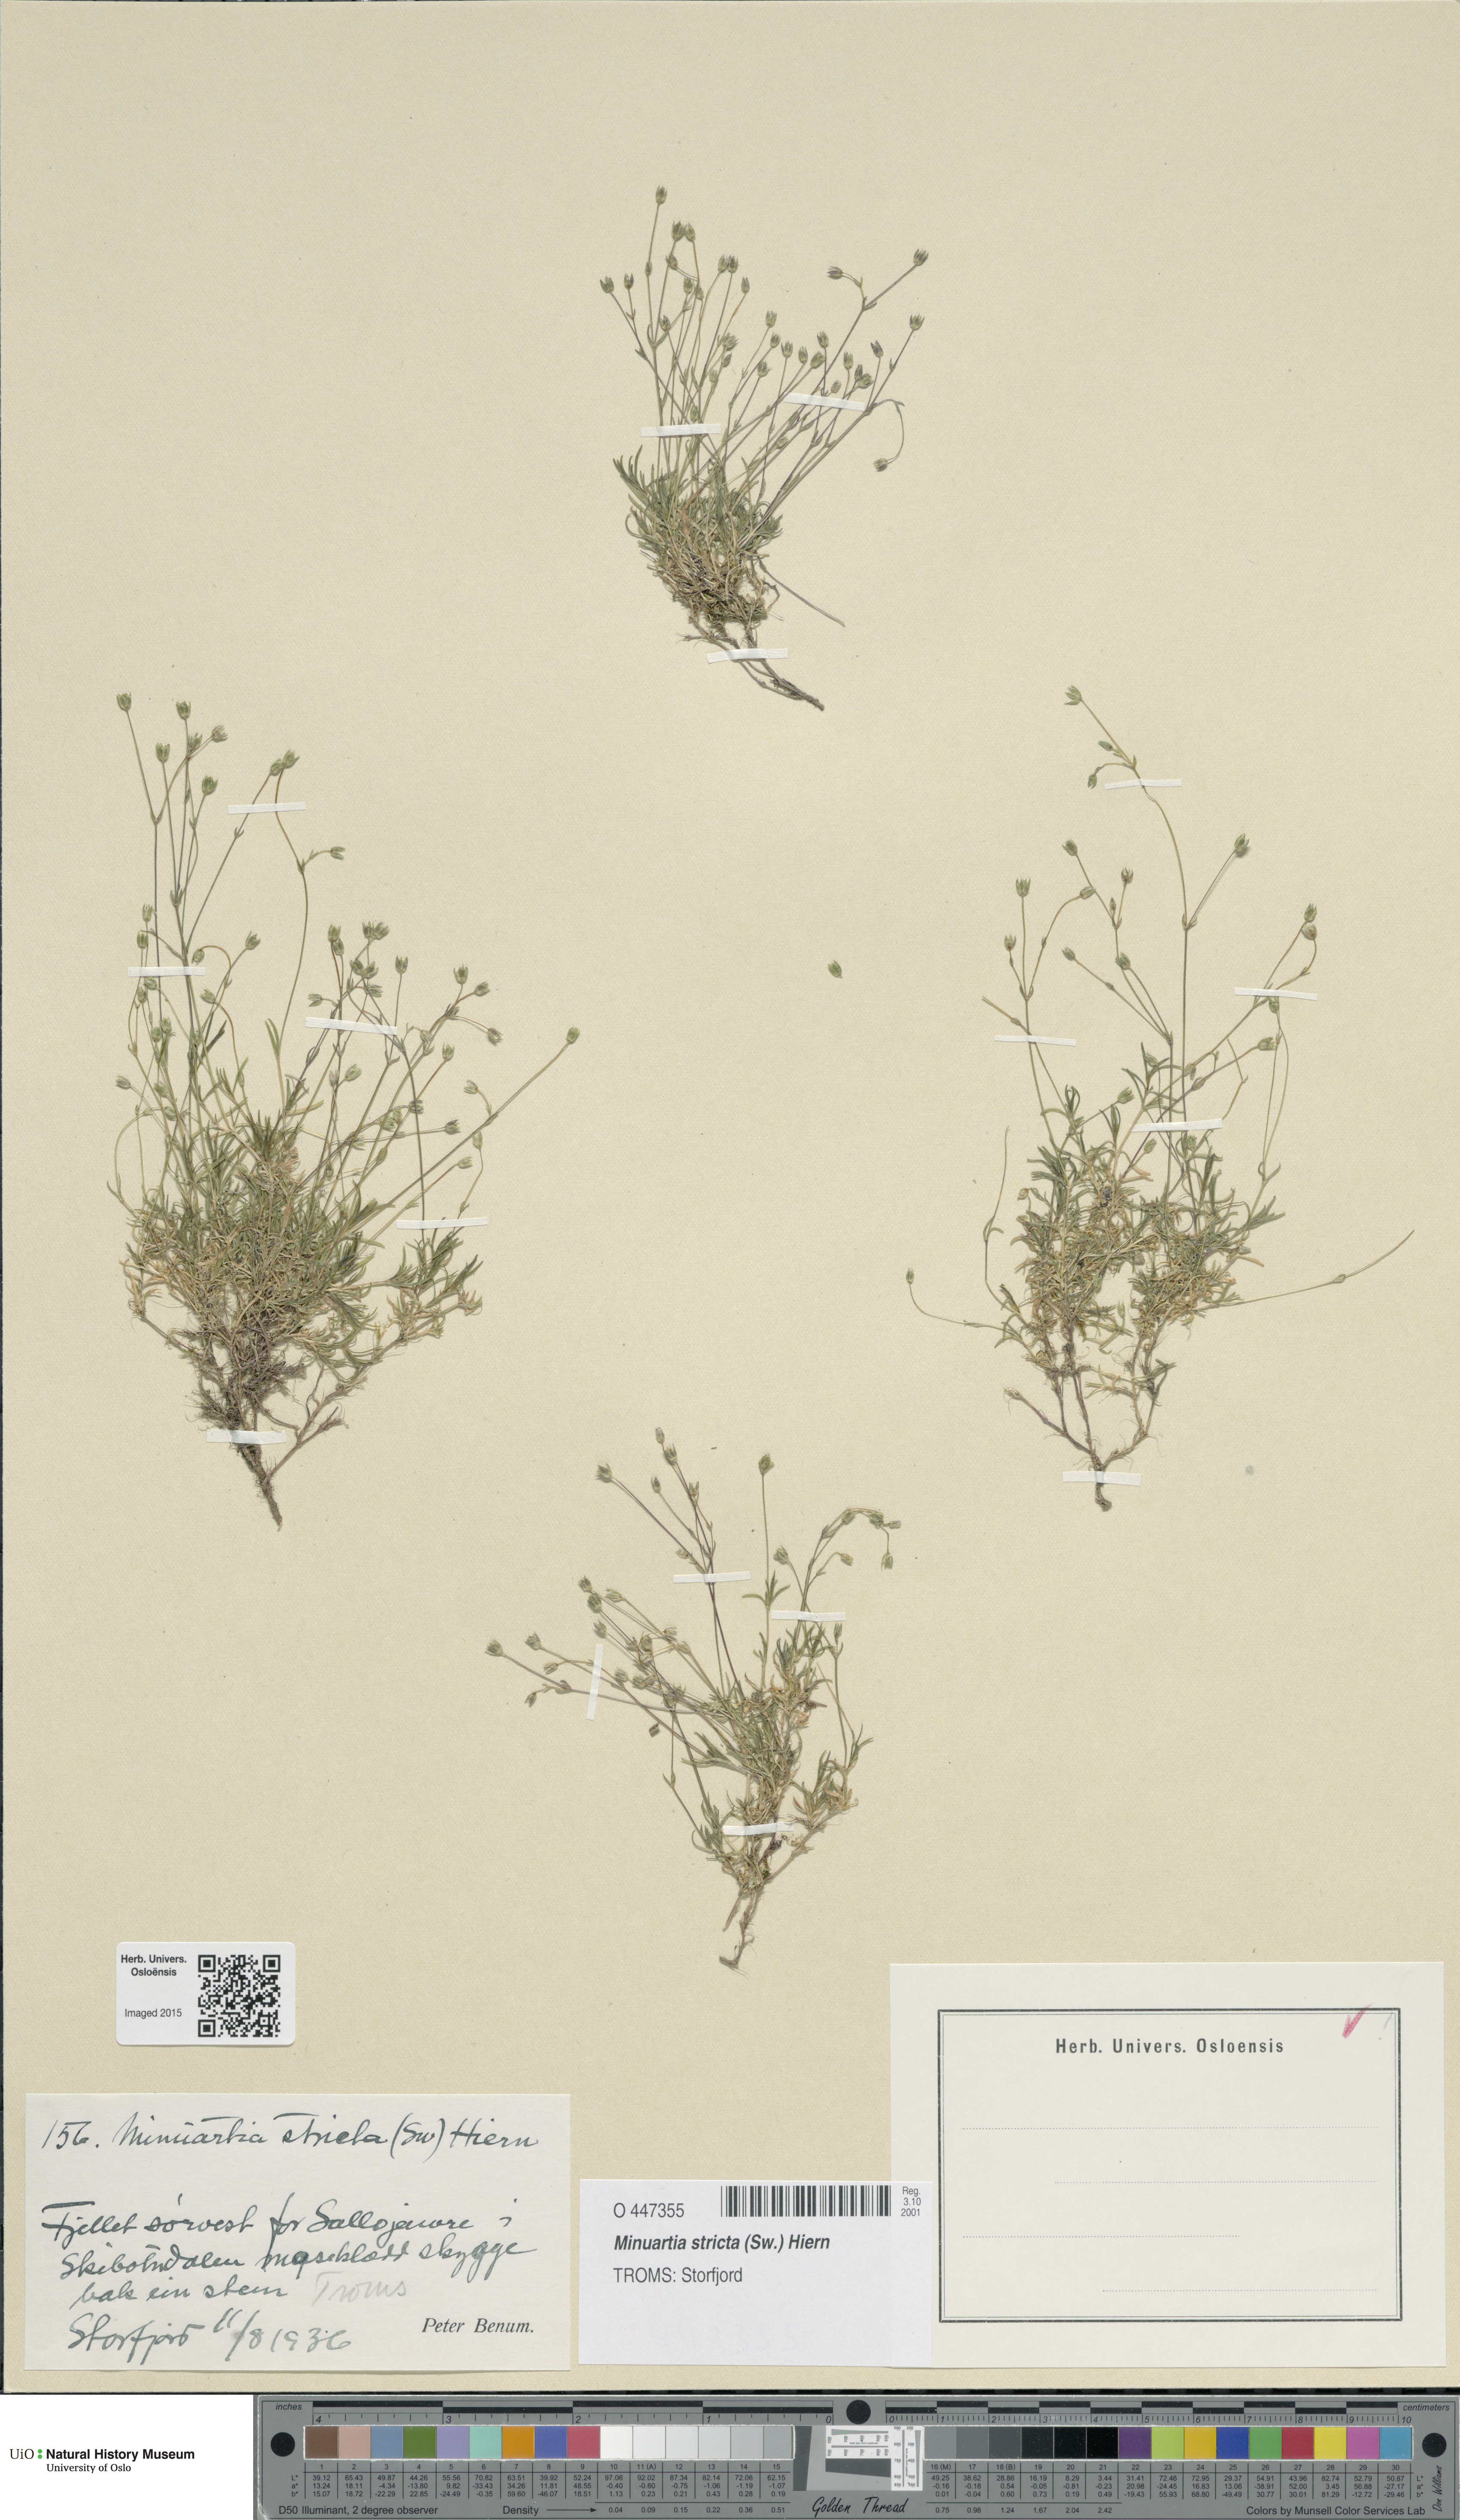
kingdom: Plantae
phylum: Tracheophyta
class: Magnoliopsida
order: Caryophyllales
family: Caryophyllaceae
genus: Sabulina
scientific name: Sabulina stricta
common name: Bog sandwort
